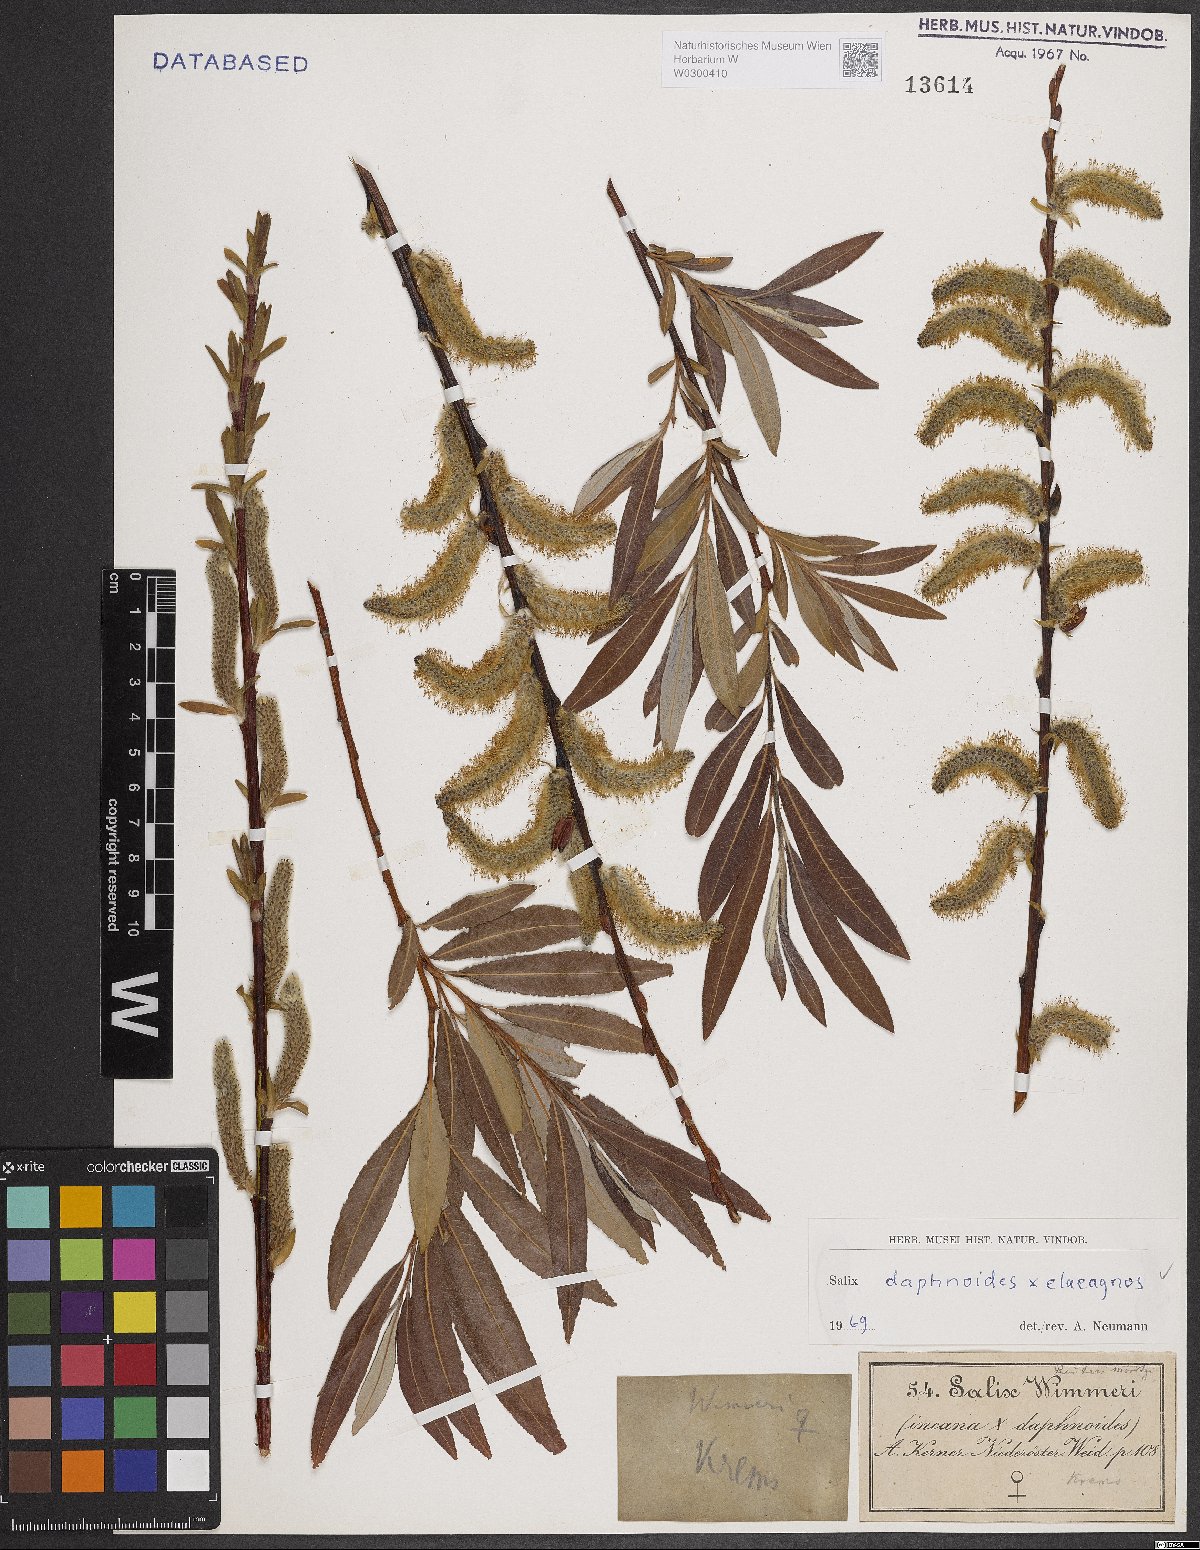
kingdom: Plantae
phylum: Tracheophyta
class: Magnoliopsida
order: Malpighiales
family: Salicaceae
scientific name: Salicaceae
